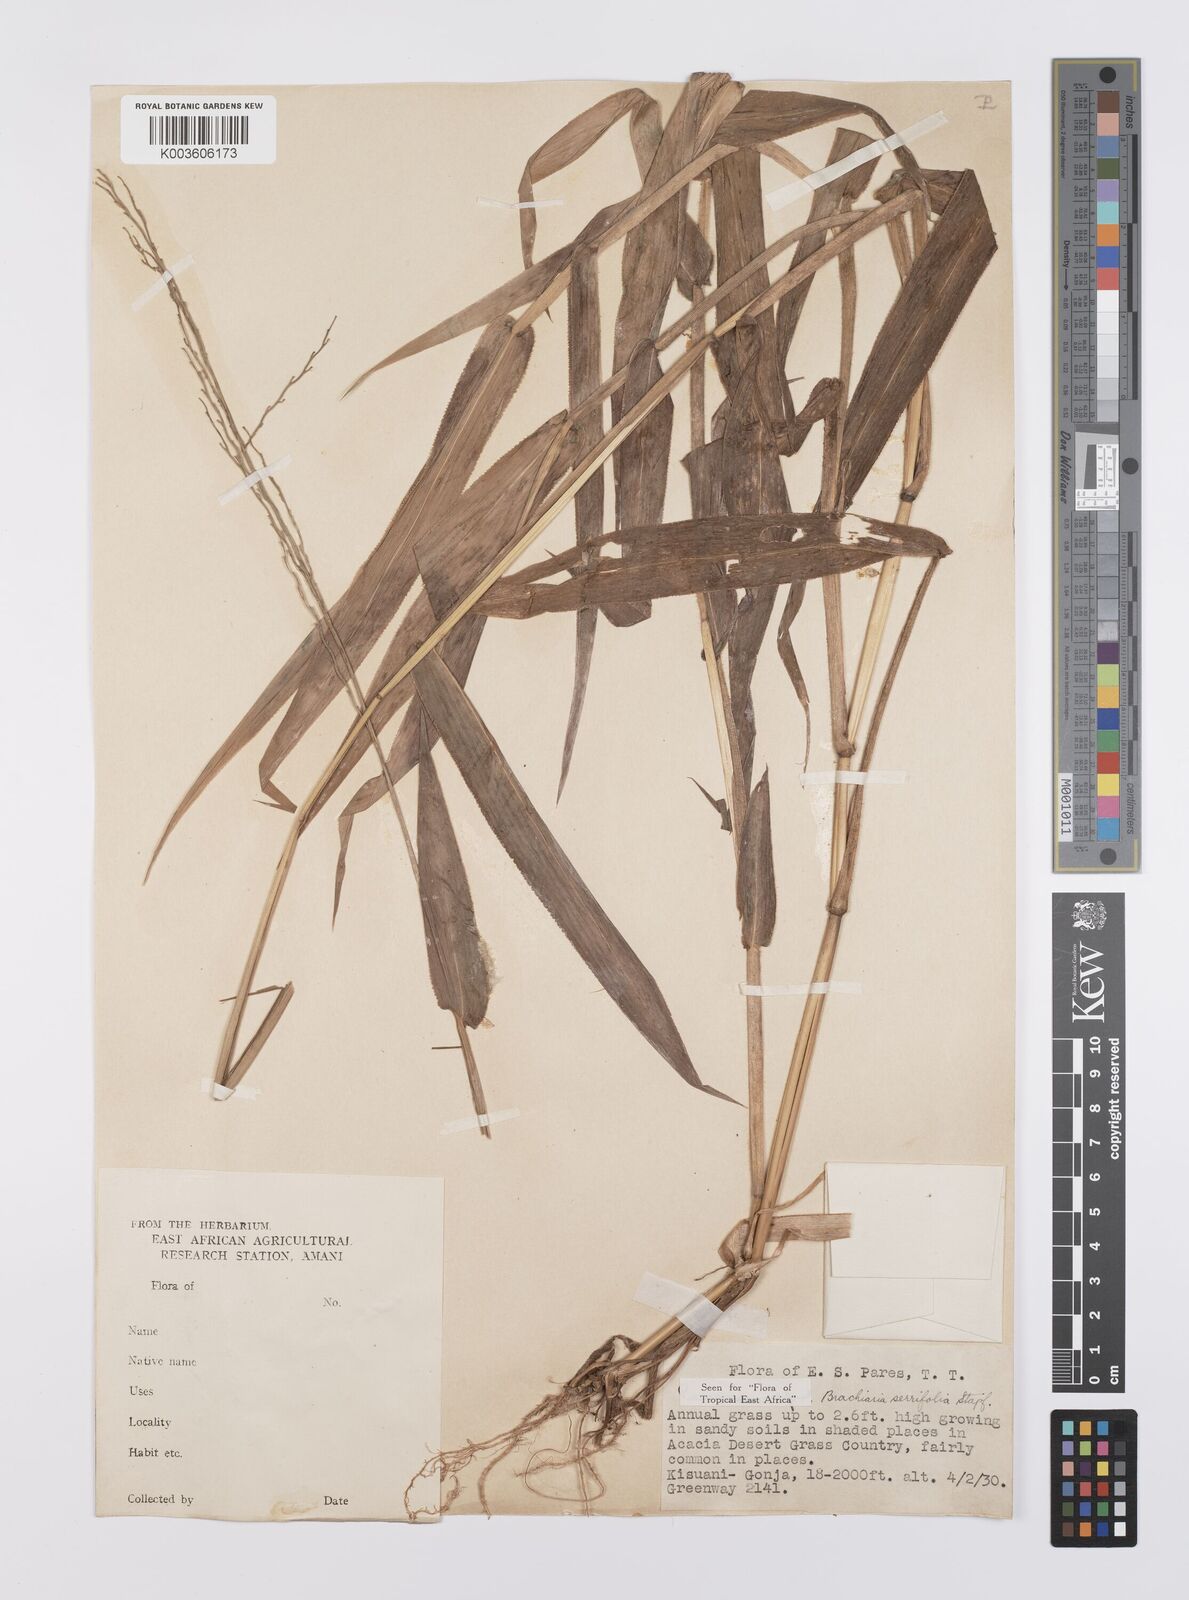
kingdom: Plantae
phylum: Tracheophyta
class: Liliopsida
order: Poales
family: Poaceae
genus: Urochloa
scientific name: Urochloa serrifolia
